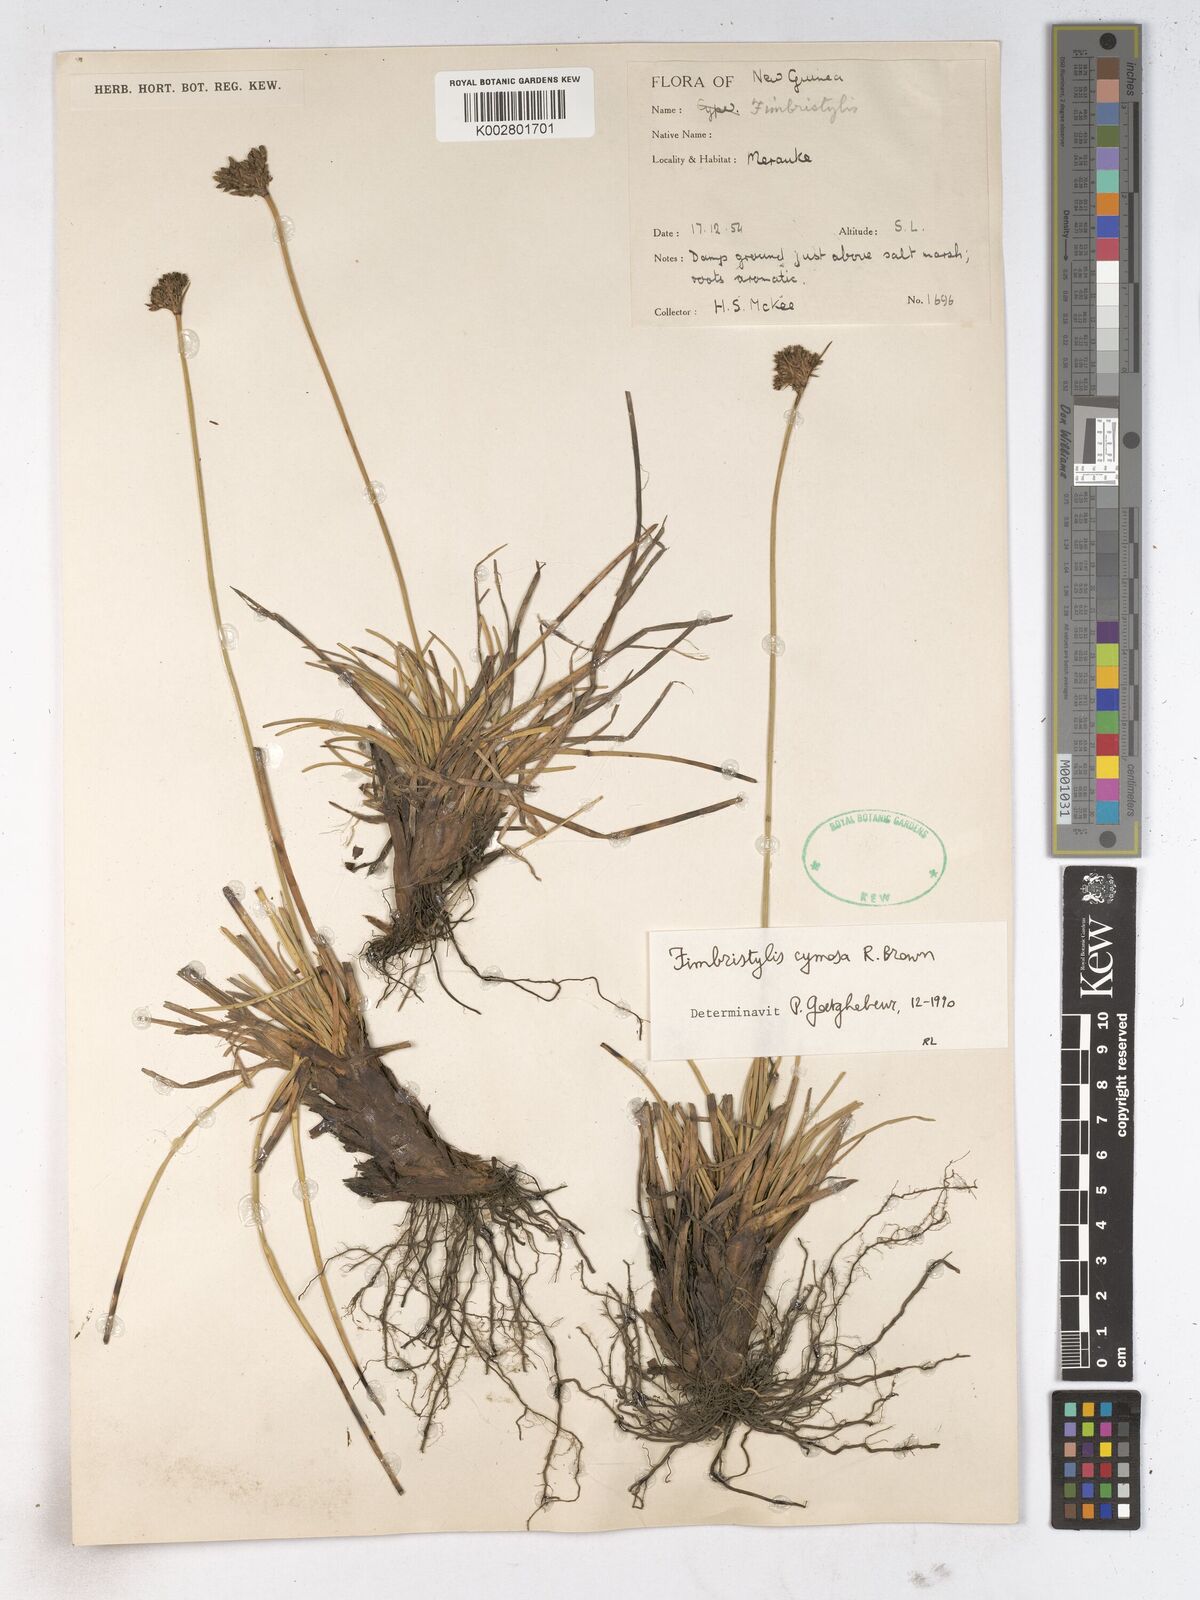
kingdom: Plantae
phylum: Tracheophyta
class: Liliopsida
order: Poales
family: Cyperaceae
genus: Fimbristylis
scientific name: Fimbristylis cymosa
